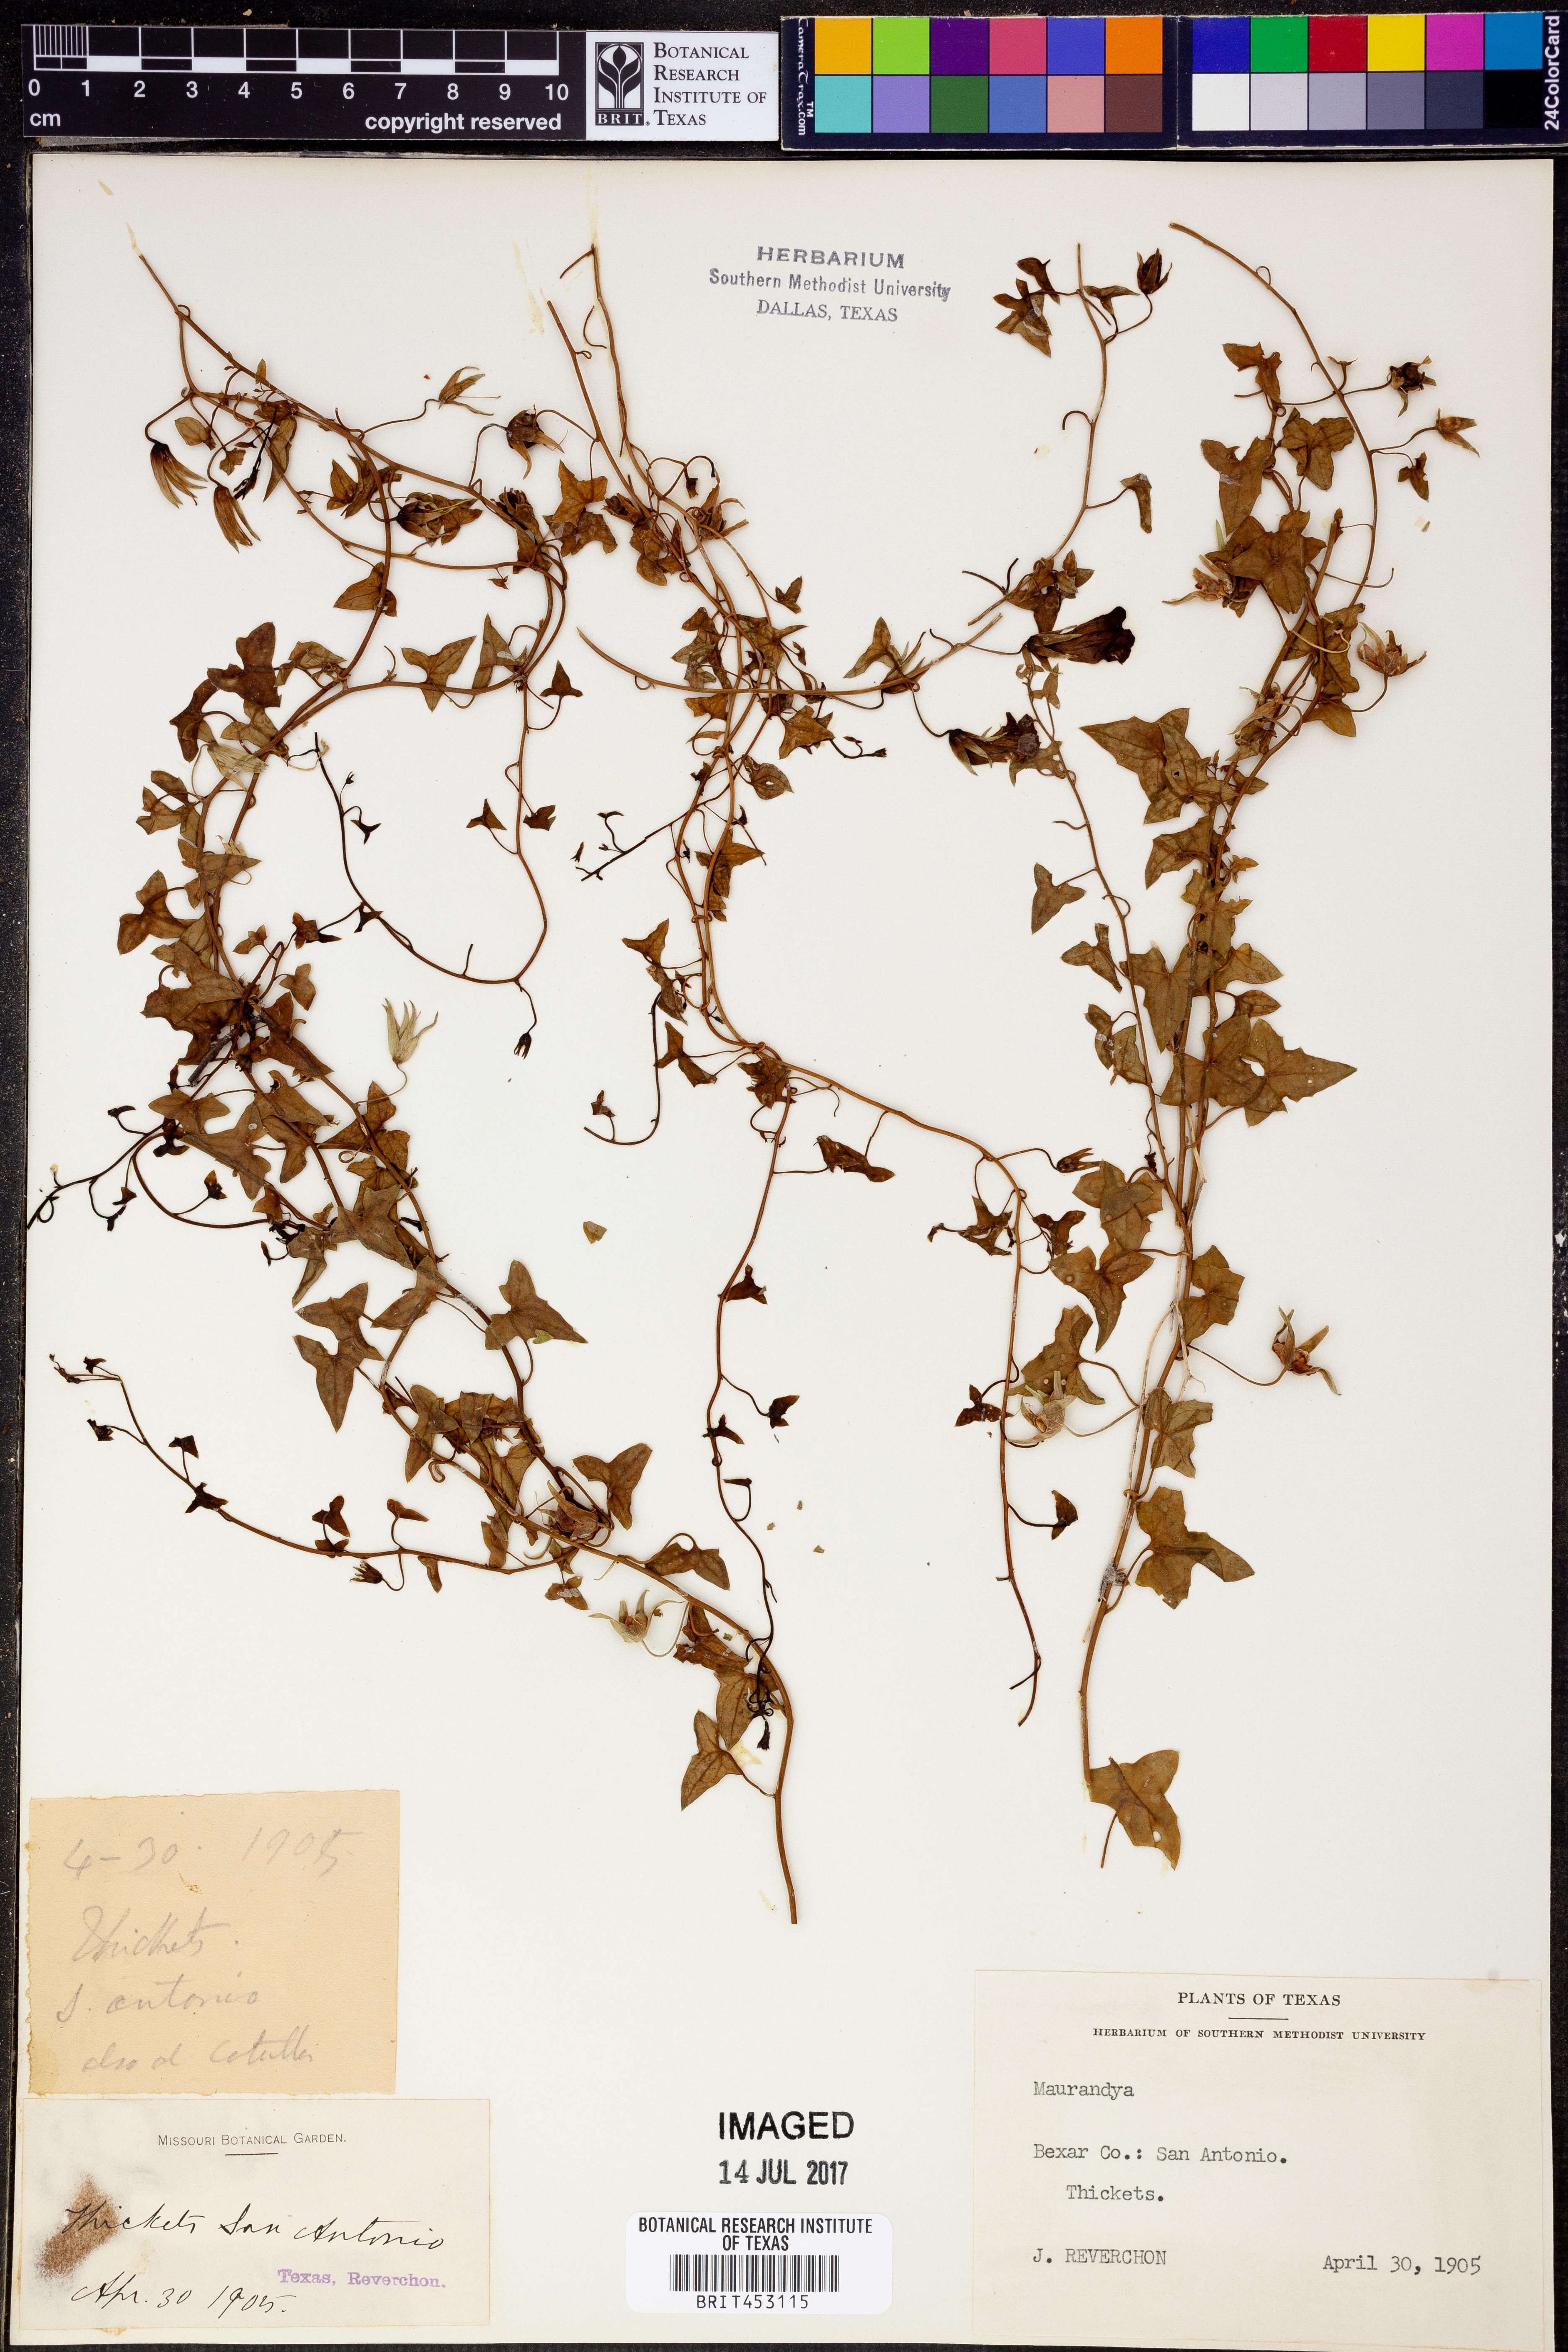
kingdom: Plantae
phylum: Tracheophyta
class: Magnoliopsida
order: Lamiales
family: Plantaginaceae
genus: Maurandya
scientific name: Maurandya
